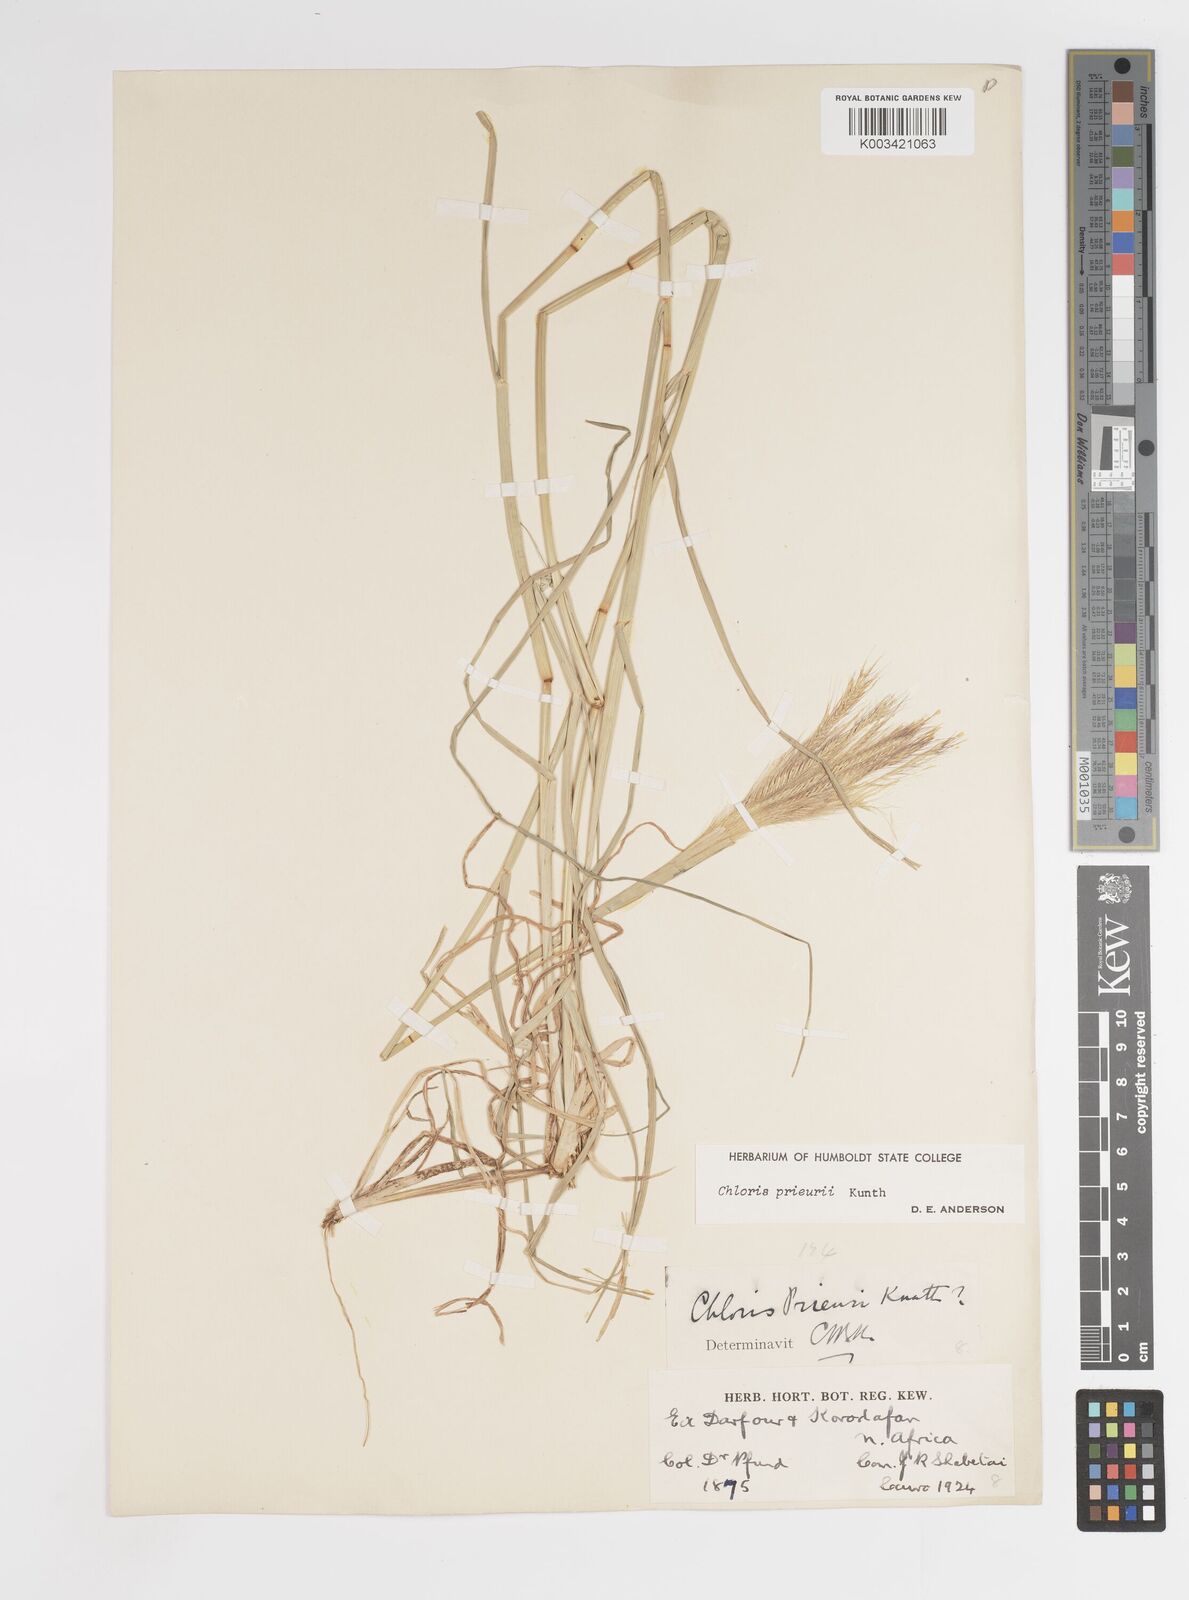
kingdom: Plantae
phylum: Tracheophyta
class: Liliopsida
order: Poales
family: Poaceae
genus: Enteropogon
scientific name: Enteropogon prieurii
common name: Prieur's umbrellagrass
